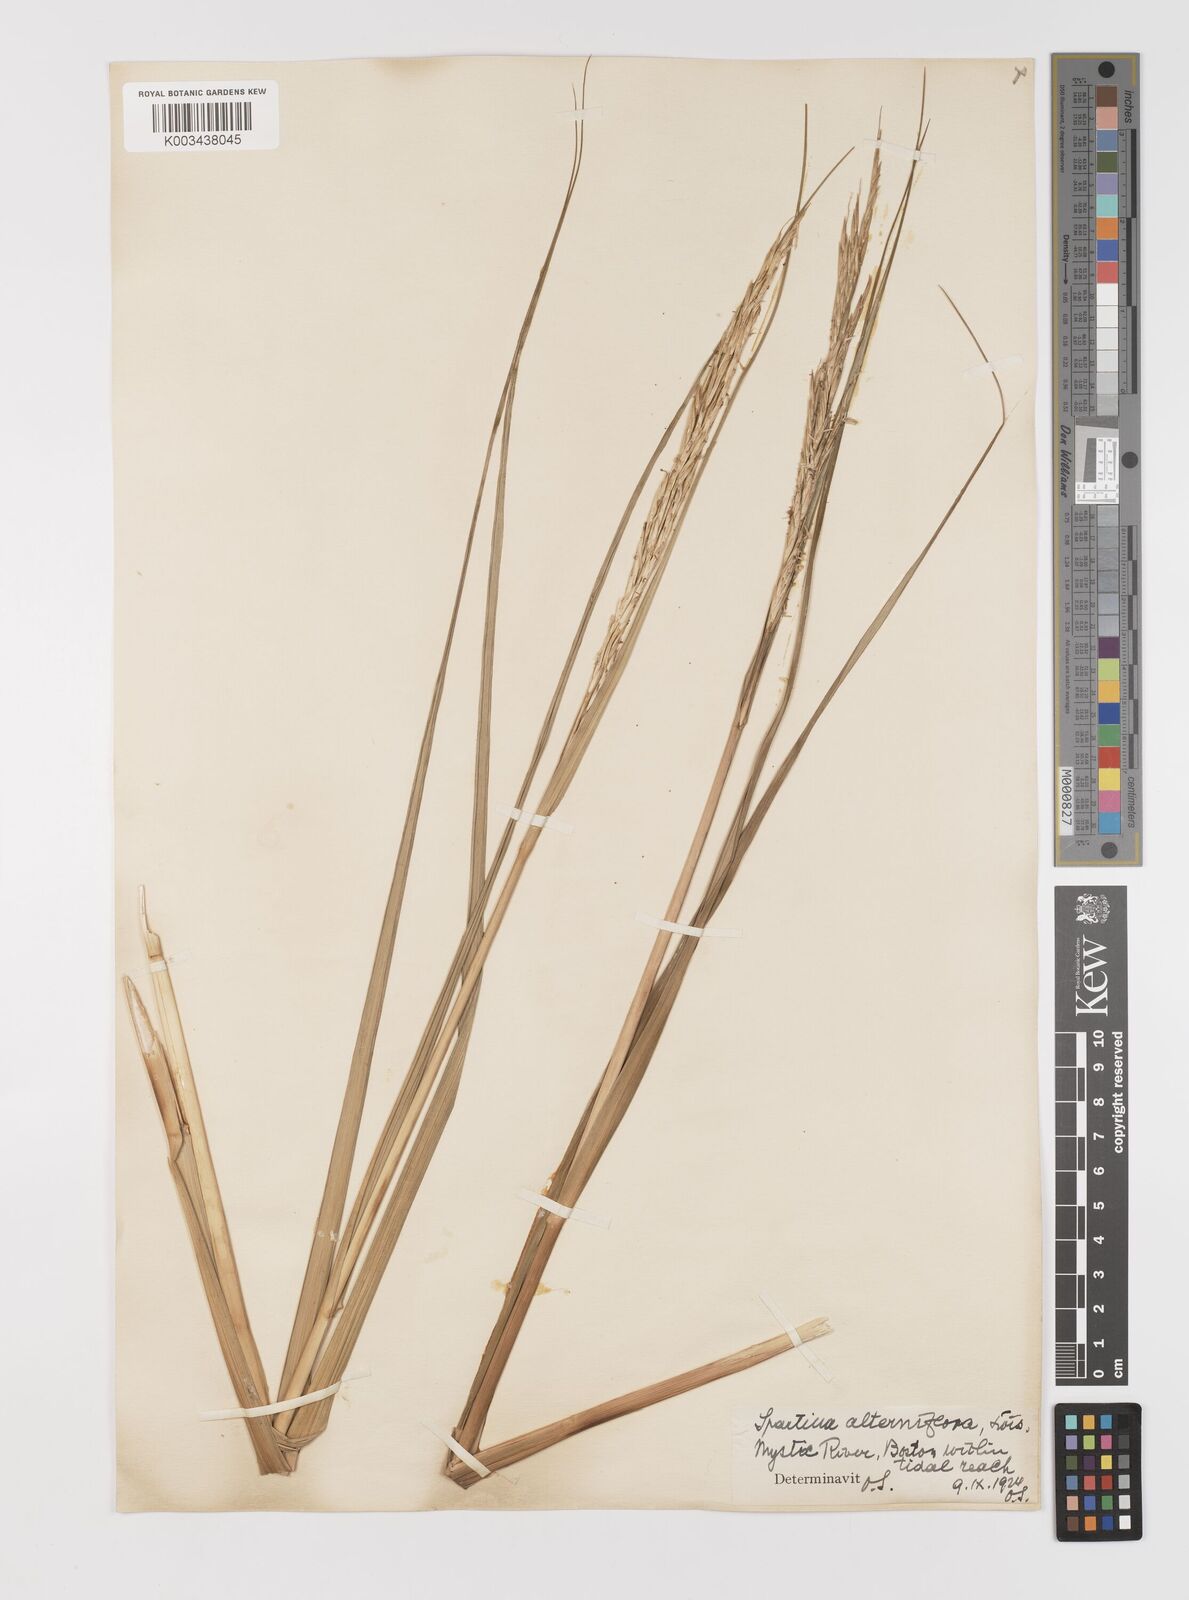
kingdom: Plantae
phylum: Tracheophyta
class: Liliopsida
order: Poales
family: Poaceae
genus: Sporobolus
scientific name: Sporobolus alterniflorus
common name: Atlantic cordgrass
